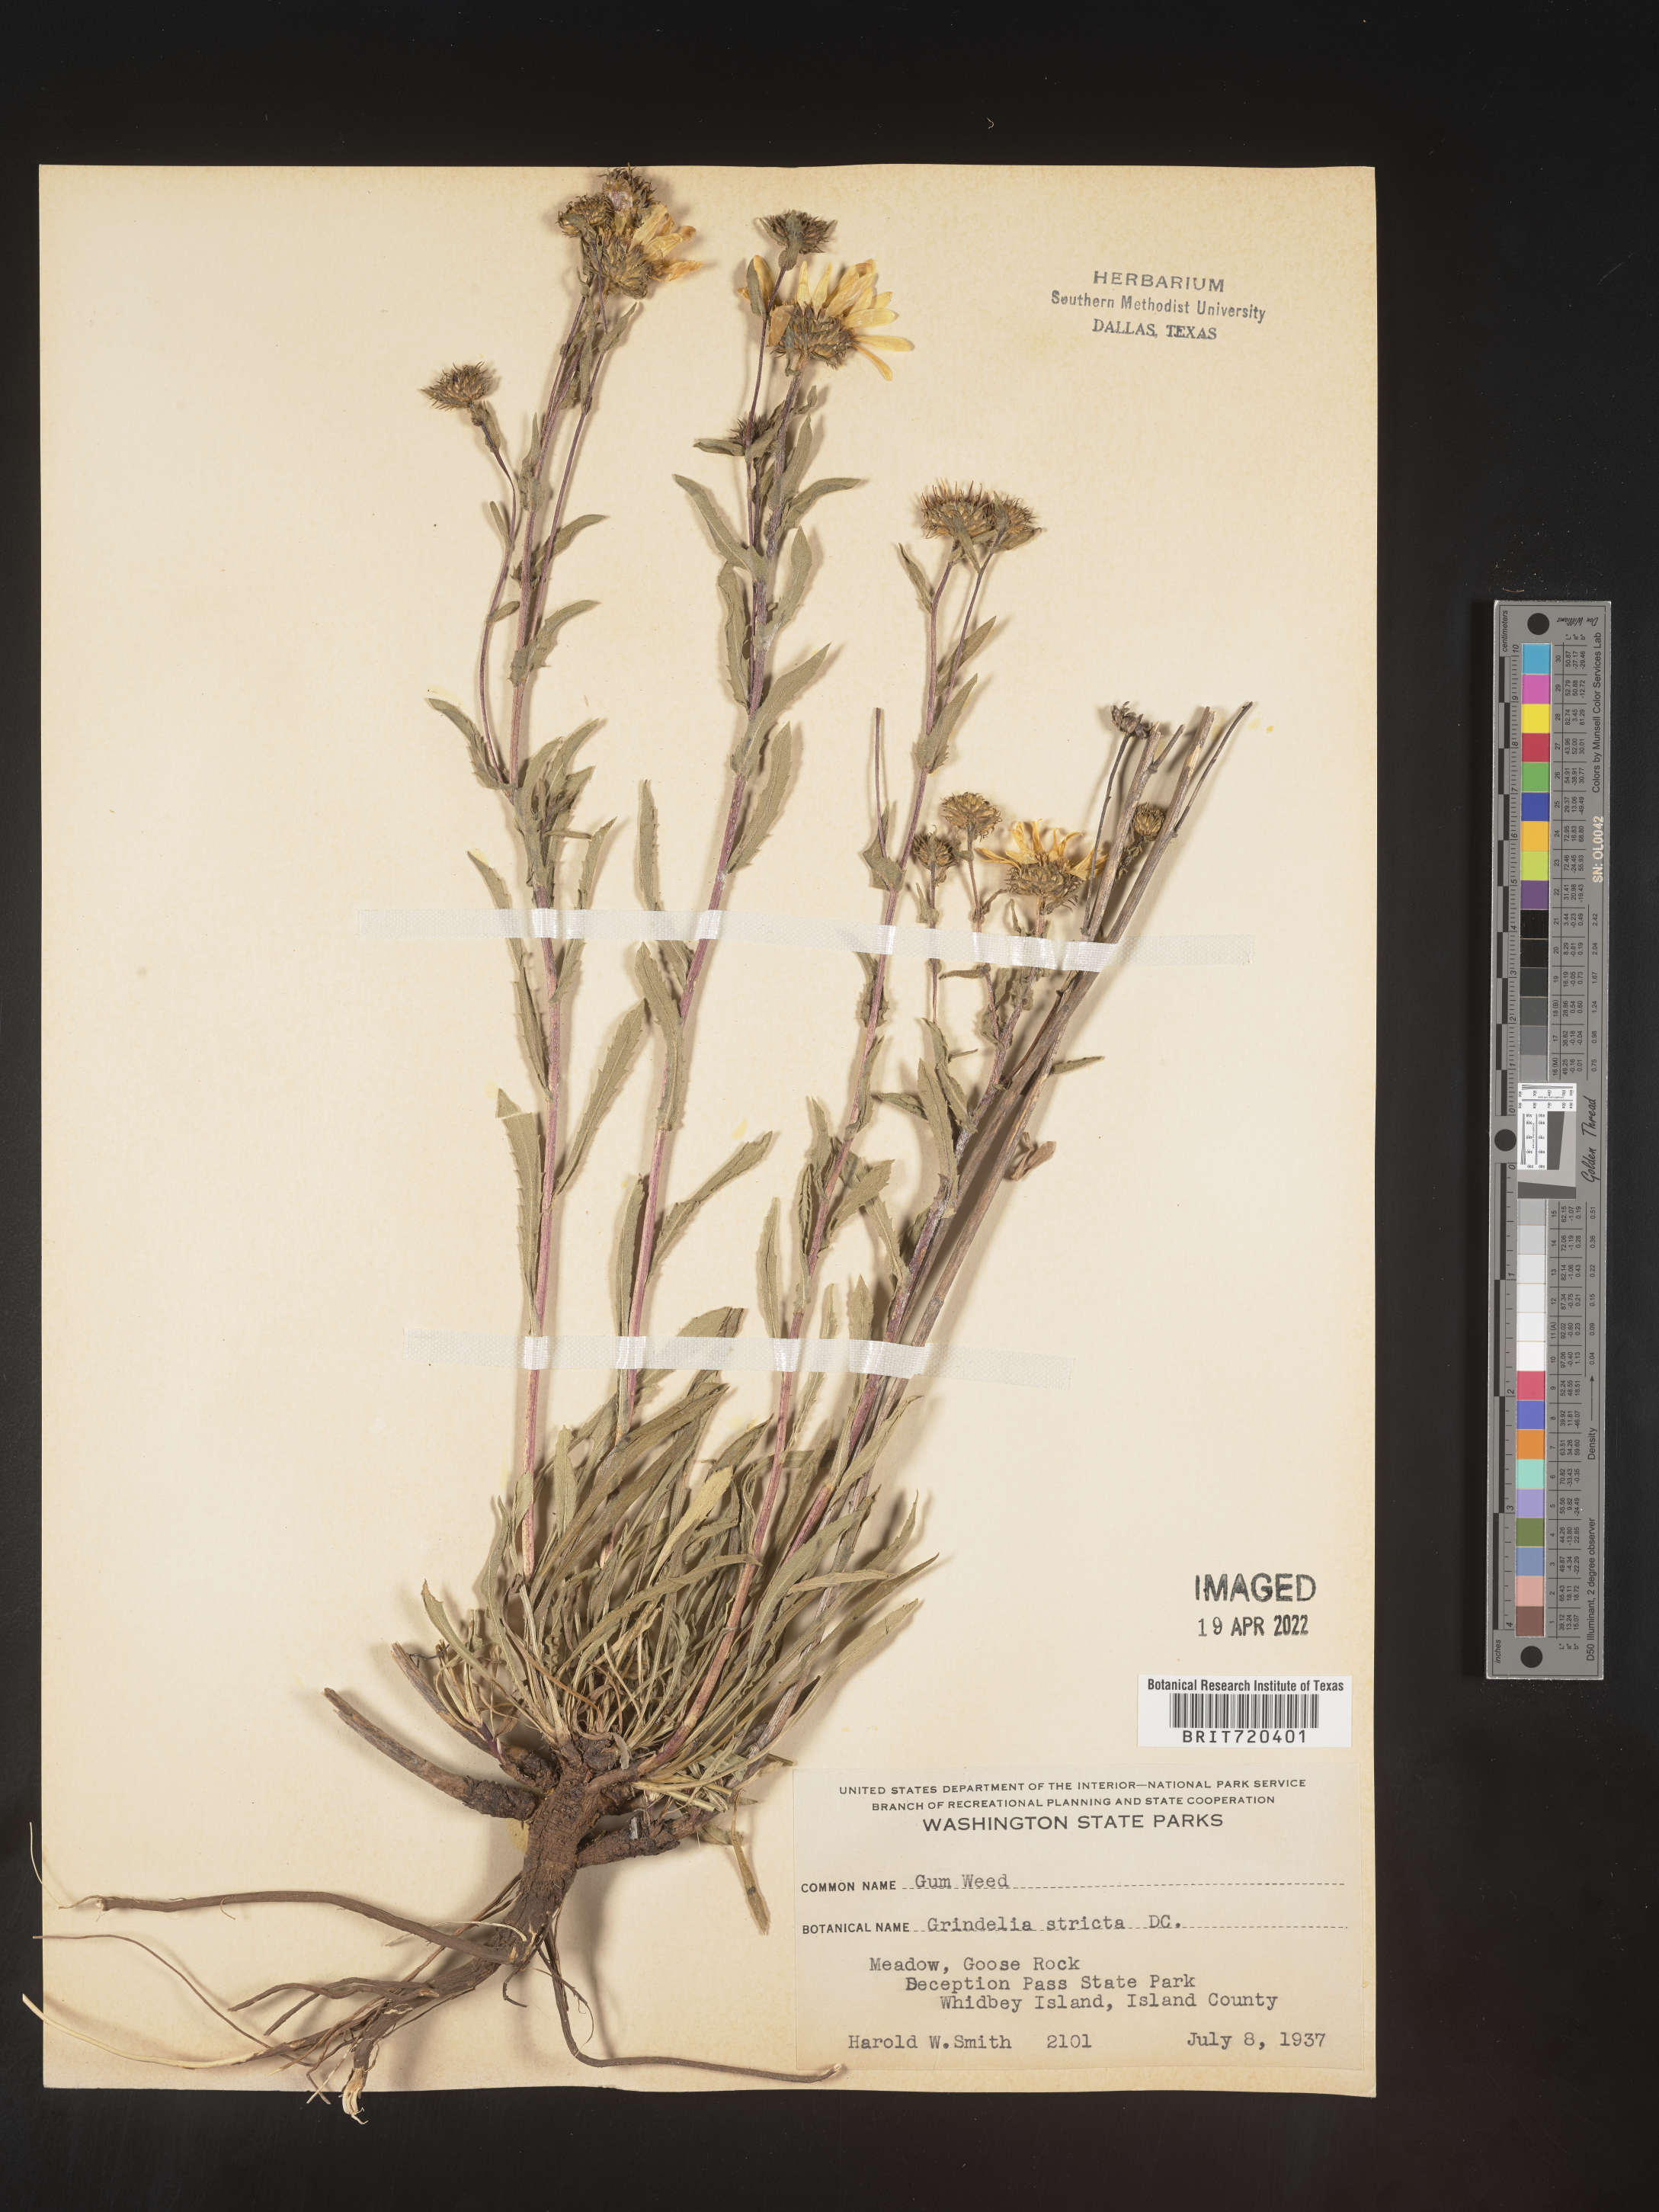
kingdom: Plantae
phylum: Tracheophyta
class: Magnoliopsida
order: Asterales
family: Asteraceae
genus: Grindelia
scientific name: Grindelia hirsutula
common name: Hairy gumweed
